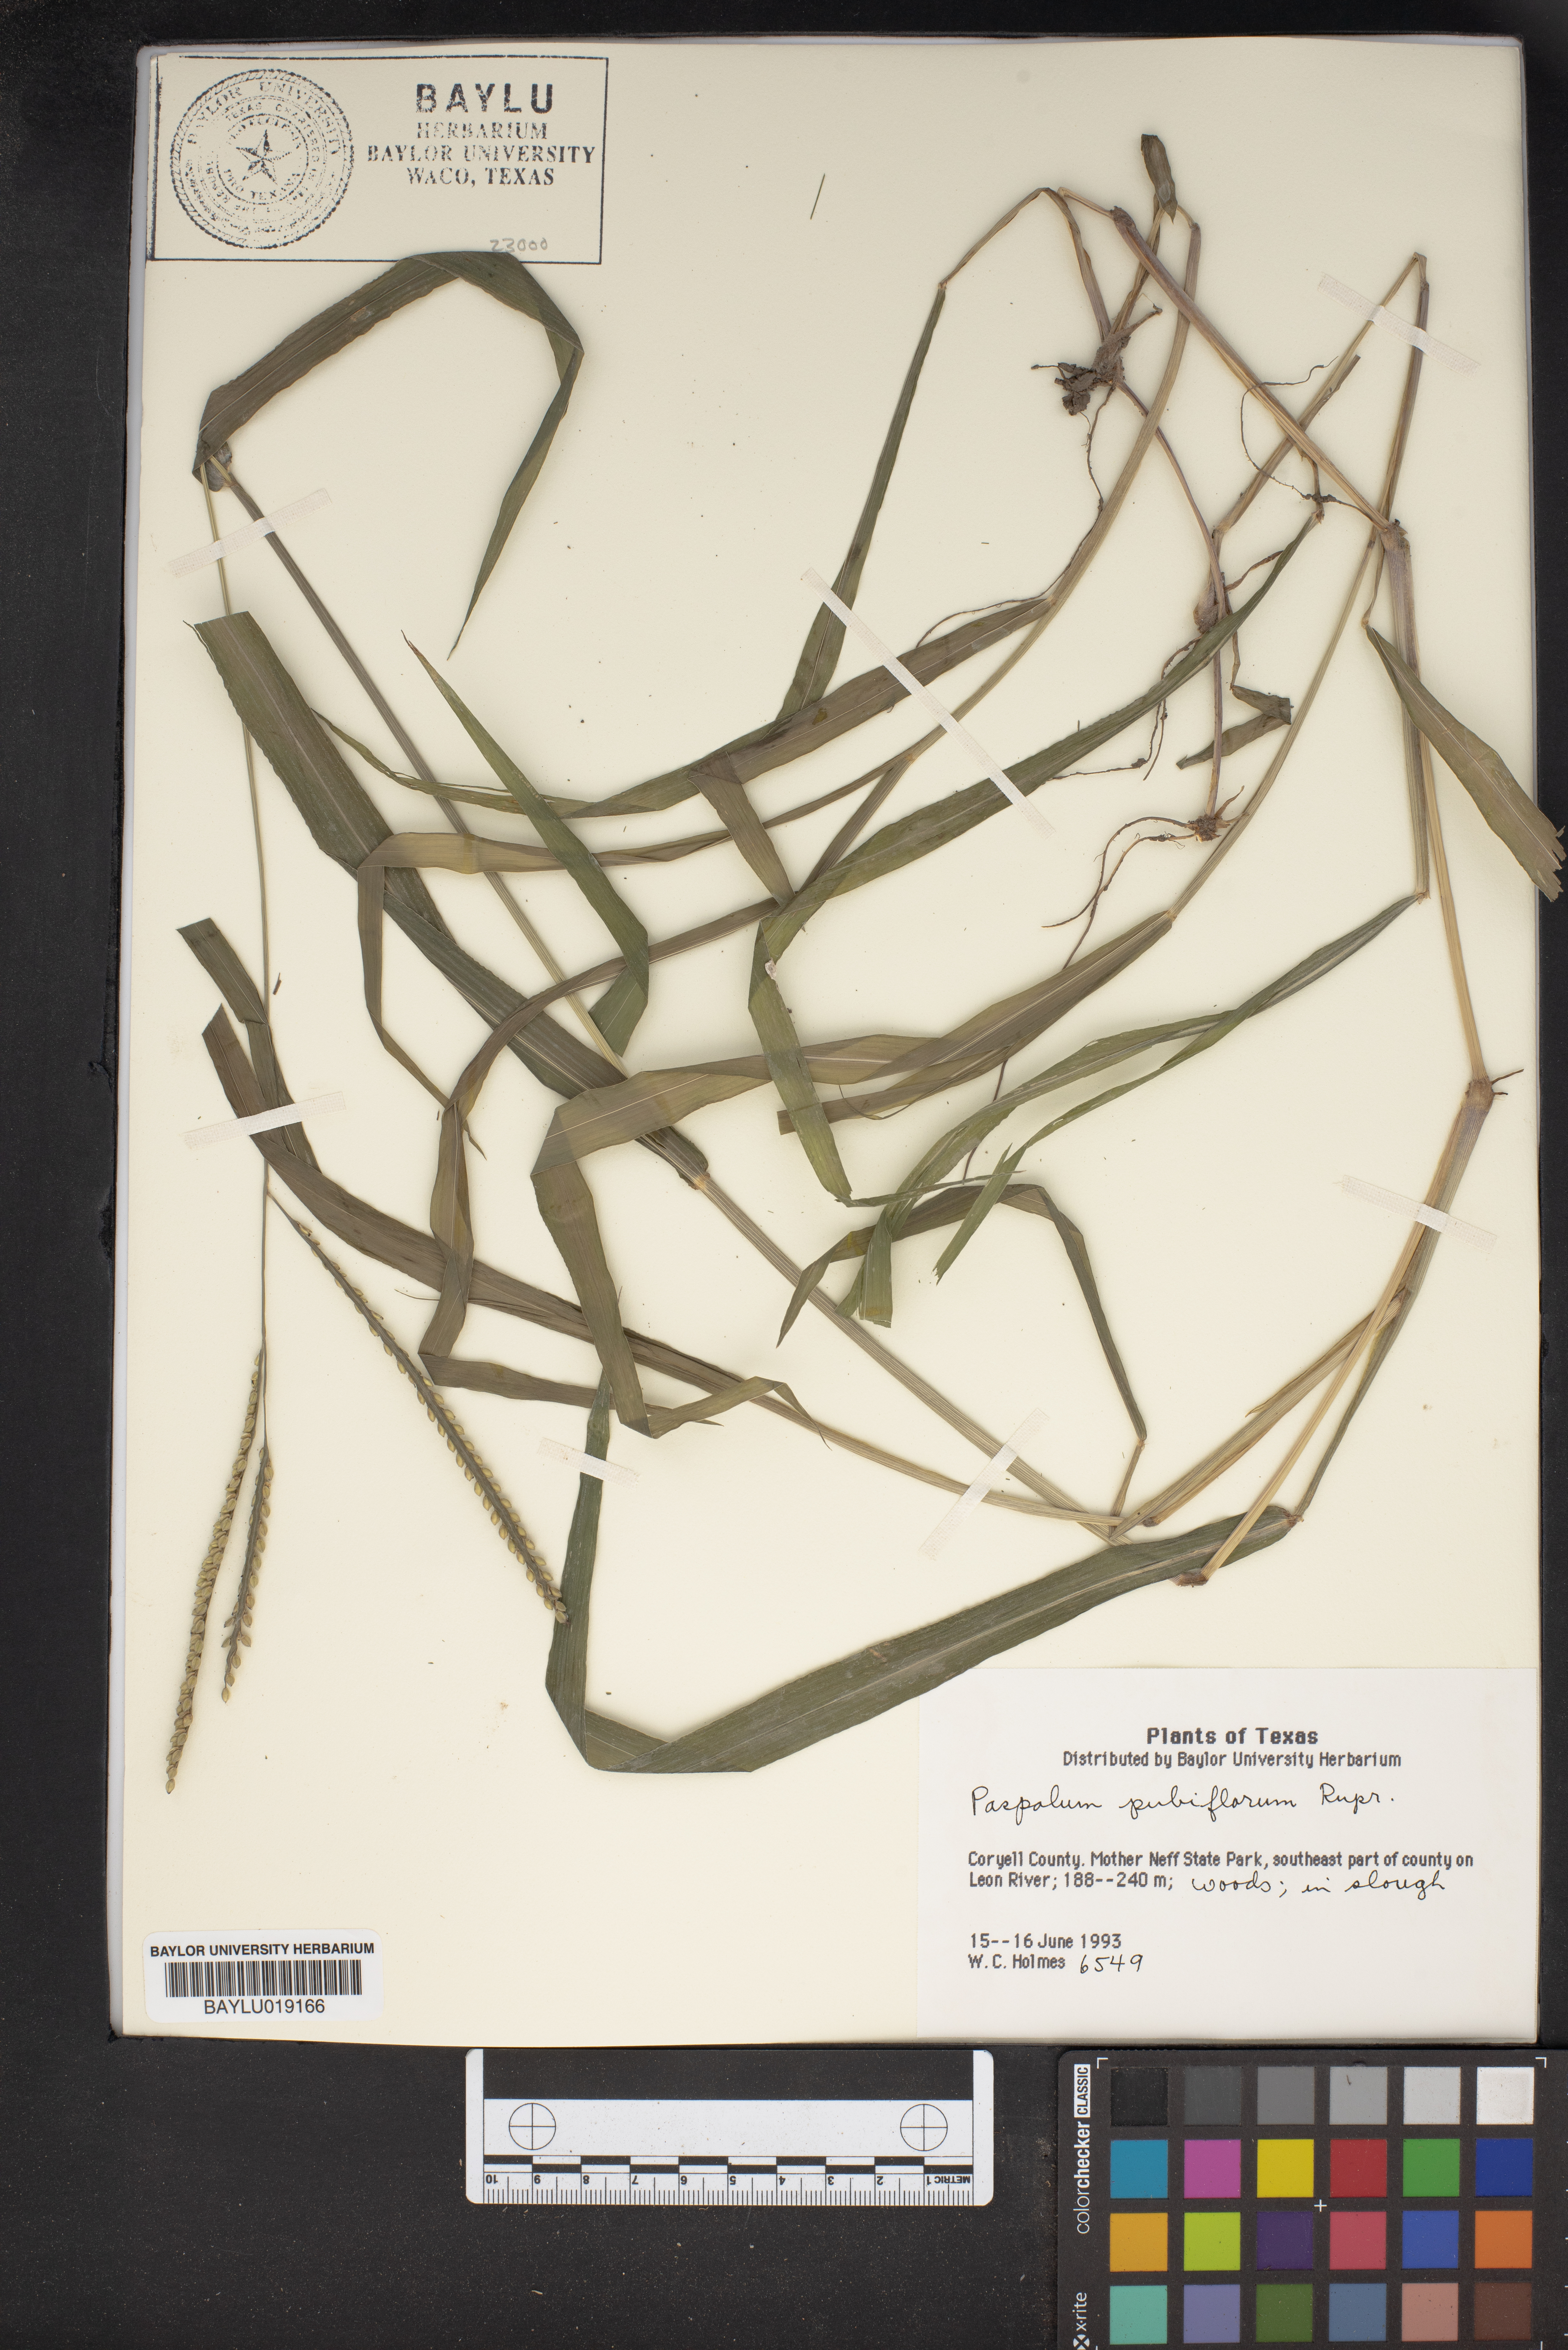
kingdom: Plantae
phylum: Tracheophyta
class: Liliopsida
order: Poales
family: Poaceae
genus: Paspalum
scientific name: Paspalum pubiflorum
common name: Hairy-seed paspalum
